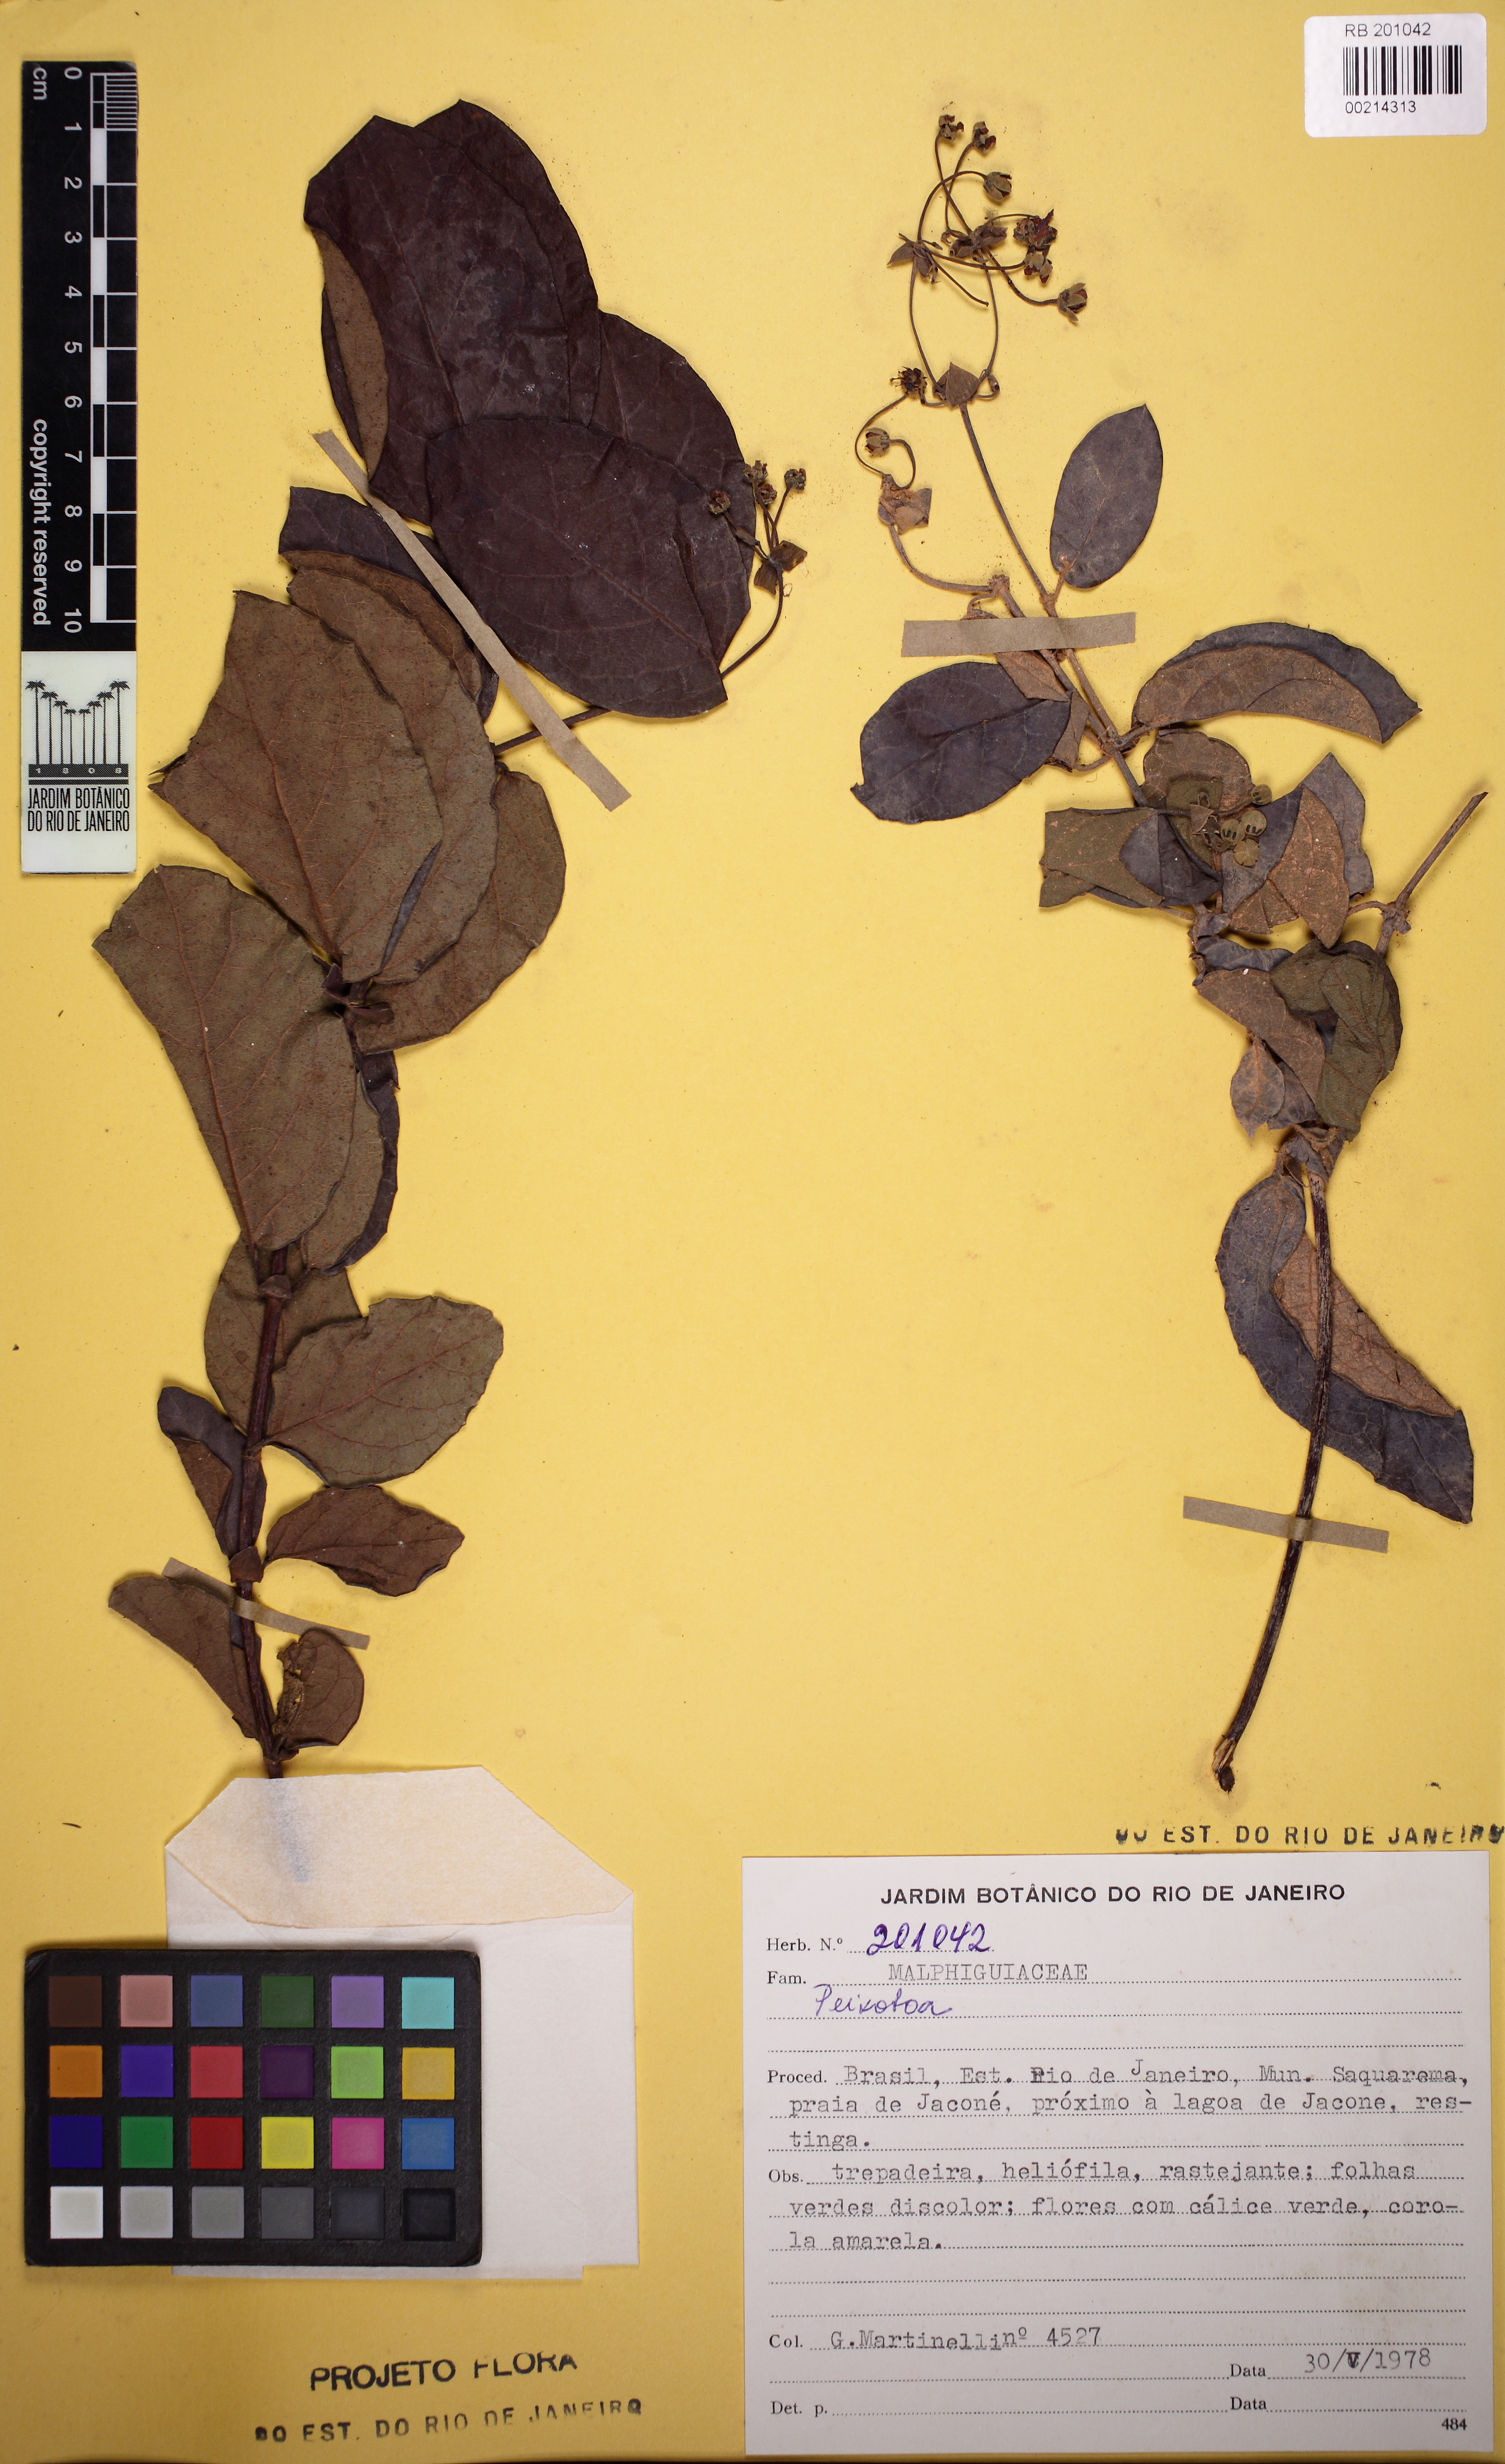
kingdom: Plantae
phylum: Tracheophyta
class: Magnoliopsida
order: Malpighiales
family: Malpighiaceae
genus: Peixotoa
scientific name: Peixotoa
